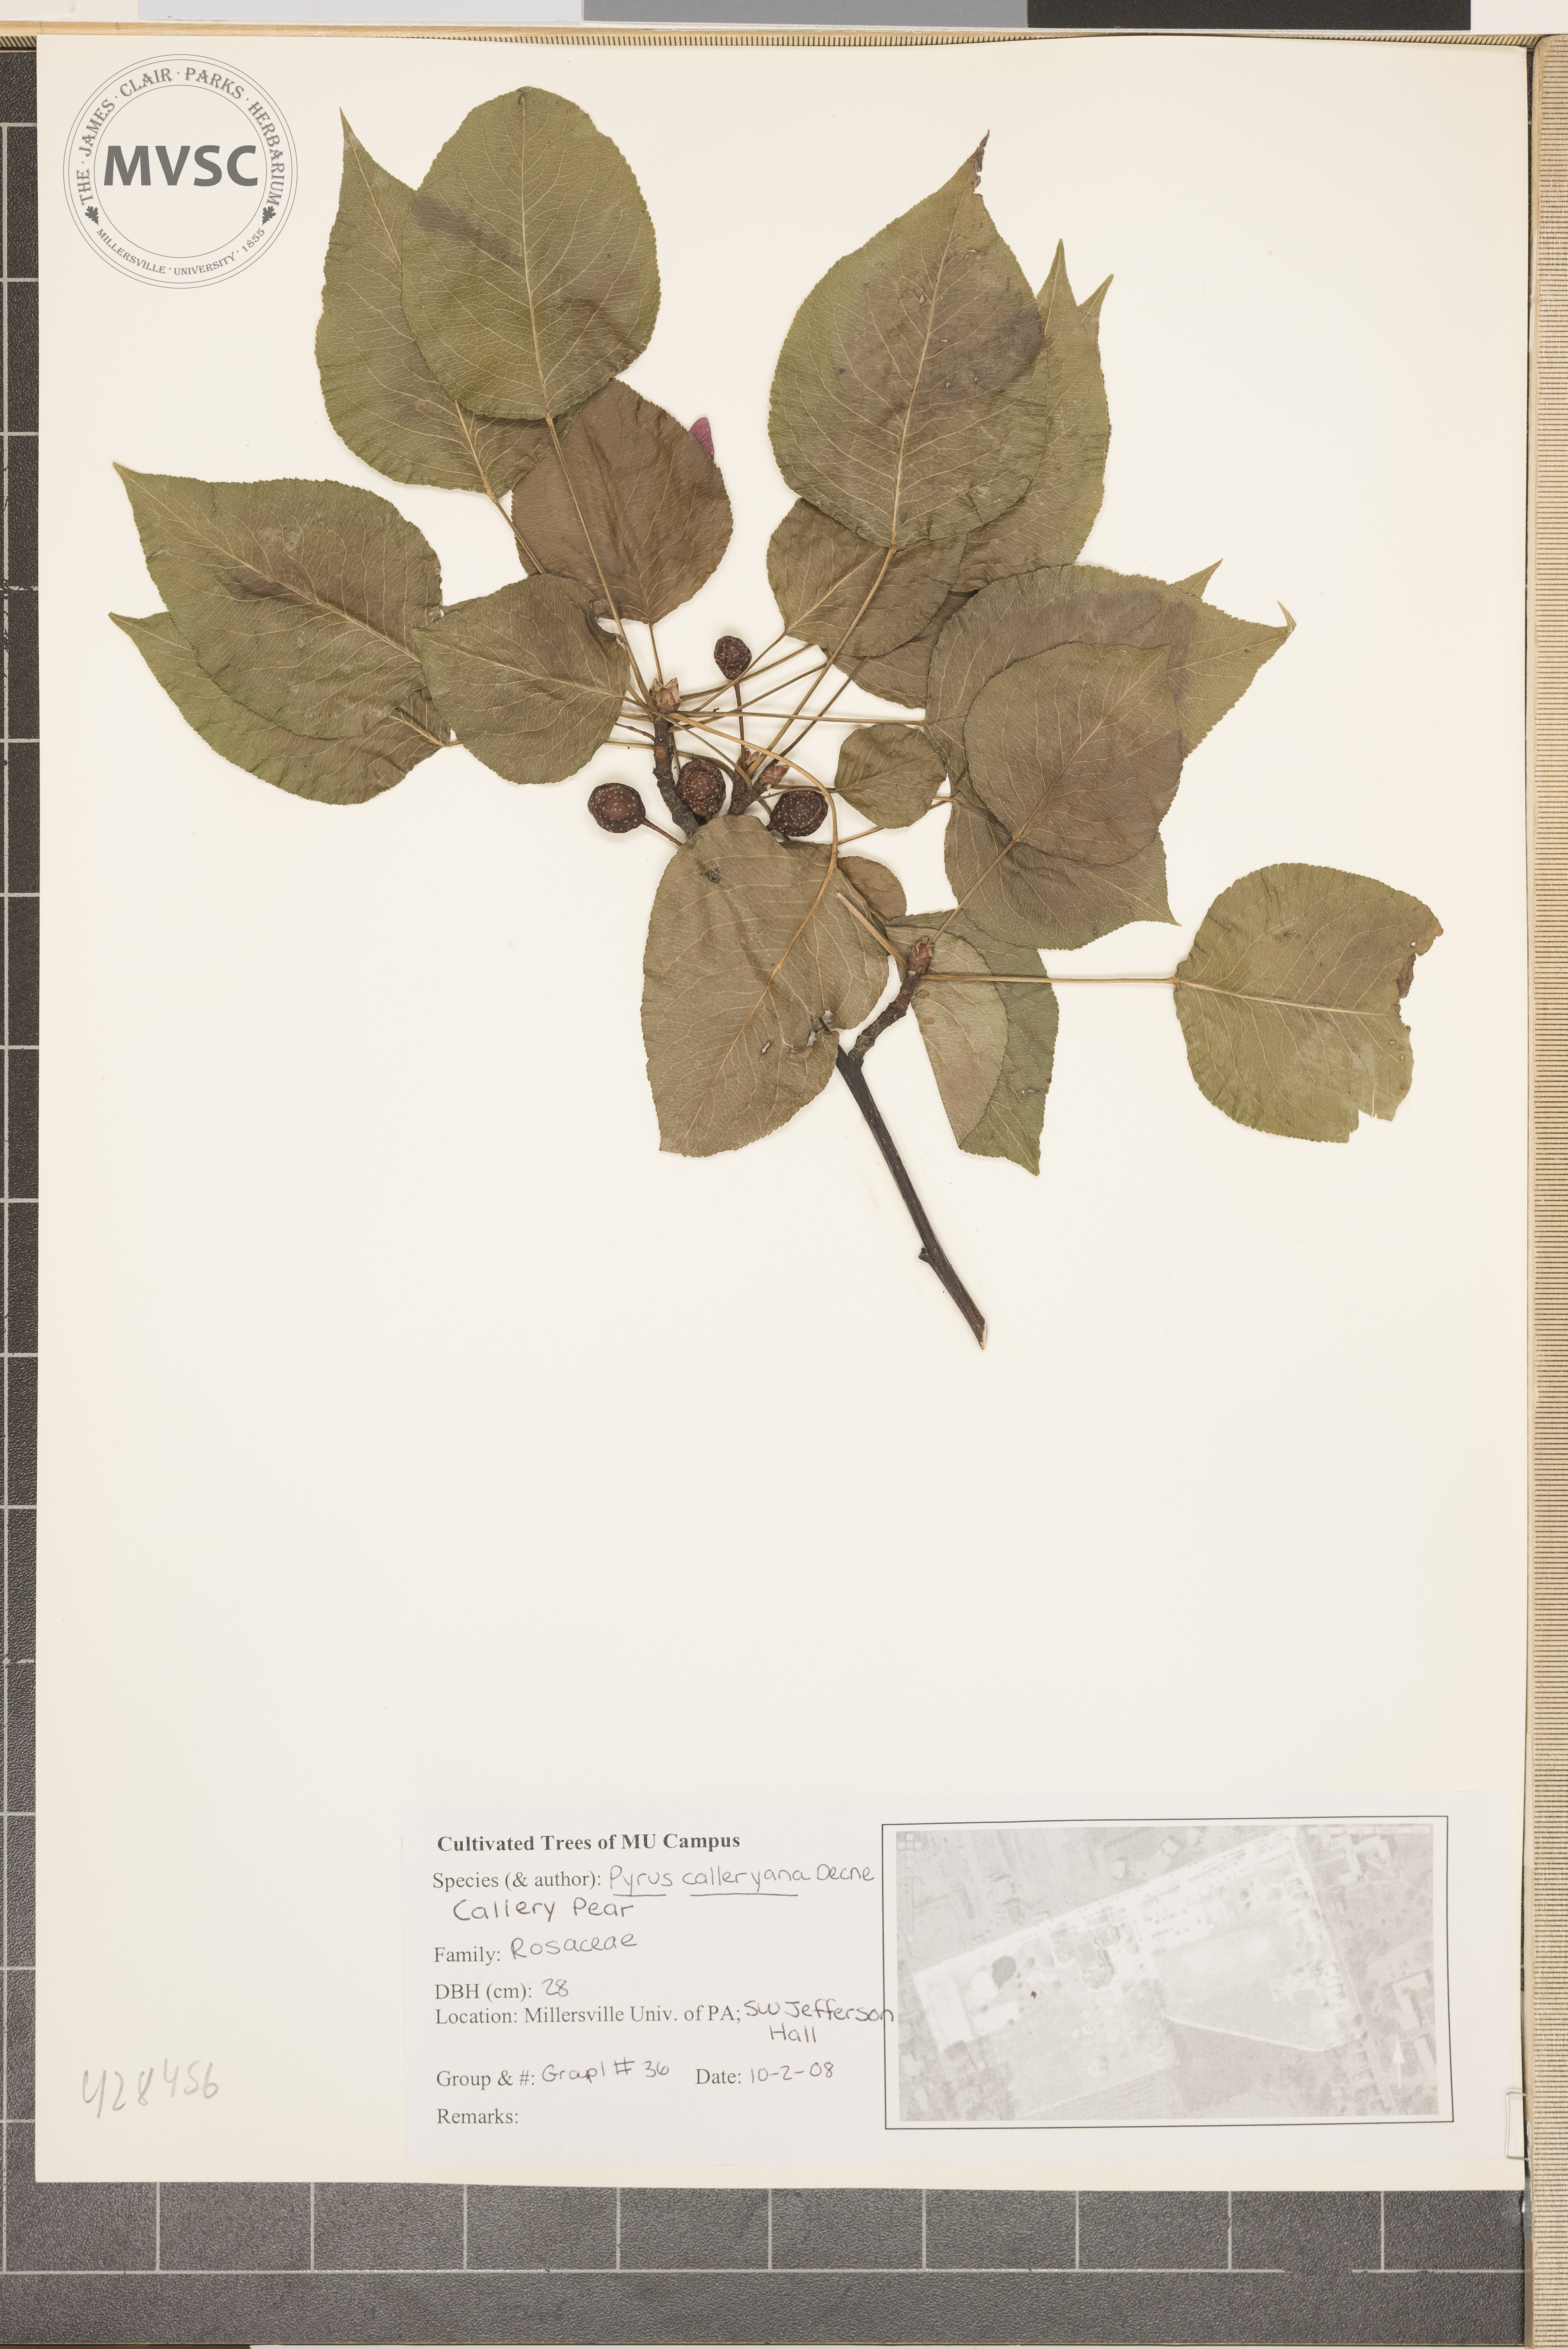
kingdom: Plantae
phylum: Tracheophyta
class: Magnoliopsida
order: Rosales
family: Rosaceae
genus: Pyrus
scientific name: Pyrus calleryana
